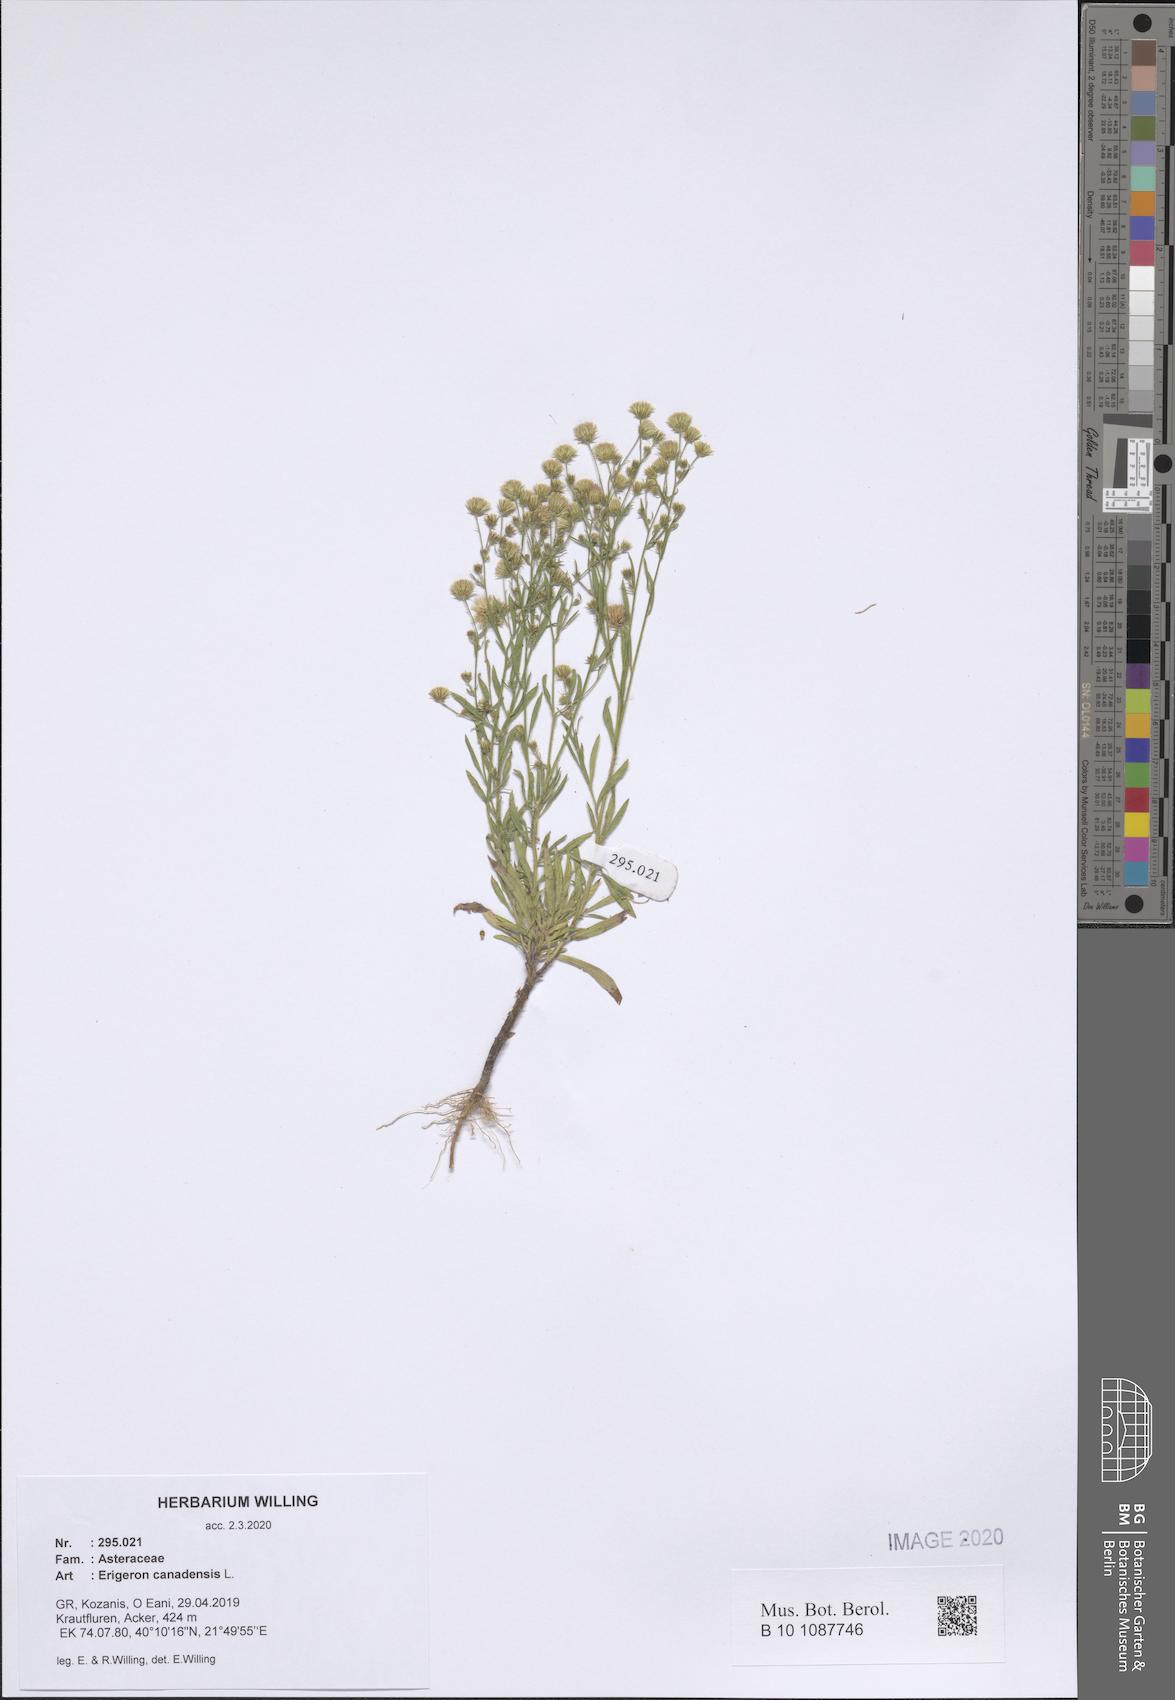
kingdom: Plantae
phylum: Tracheophyta
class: Magnoliopsida
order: Asterales
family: Asteraceae
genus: Erigeron
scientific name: Erigeron canadensis
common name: Canadian fleabane
